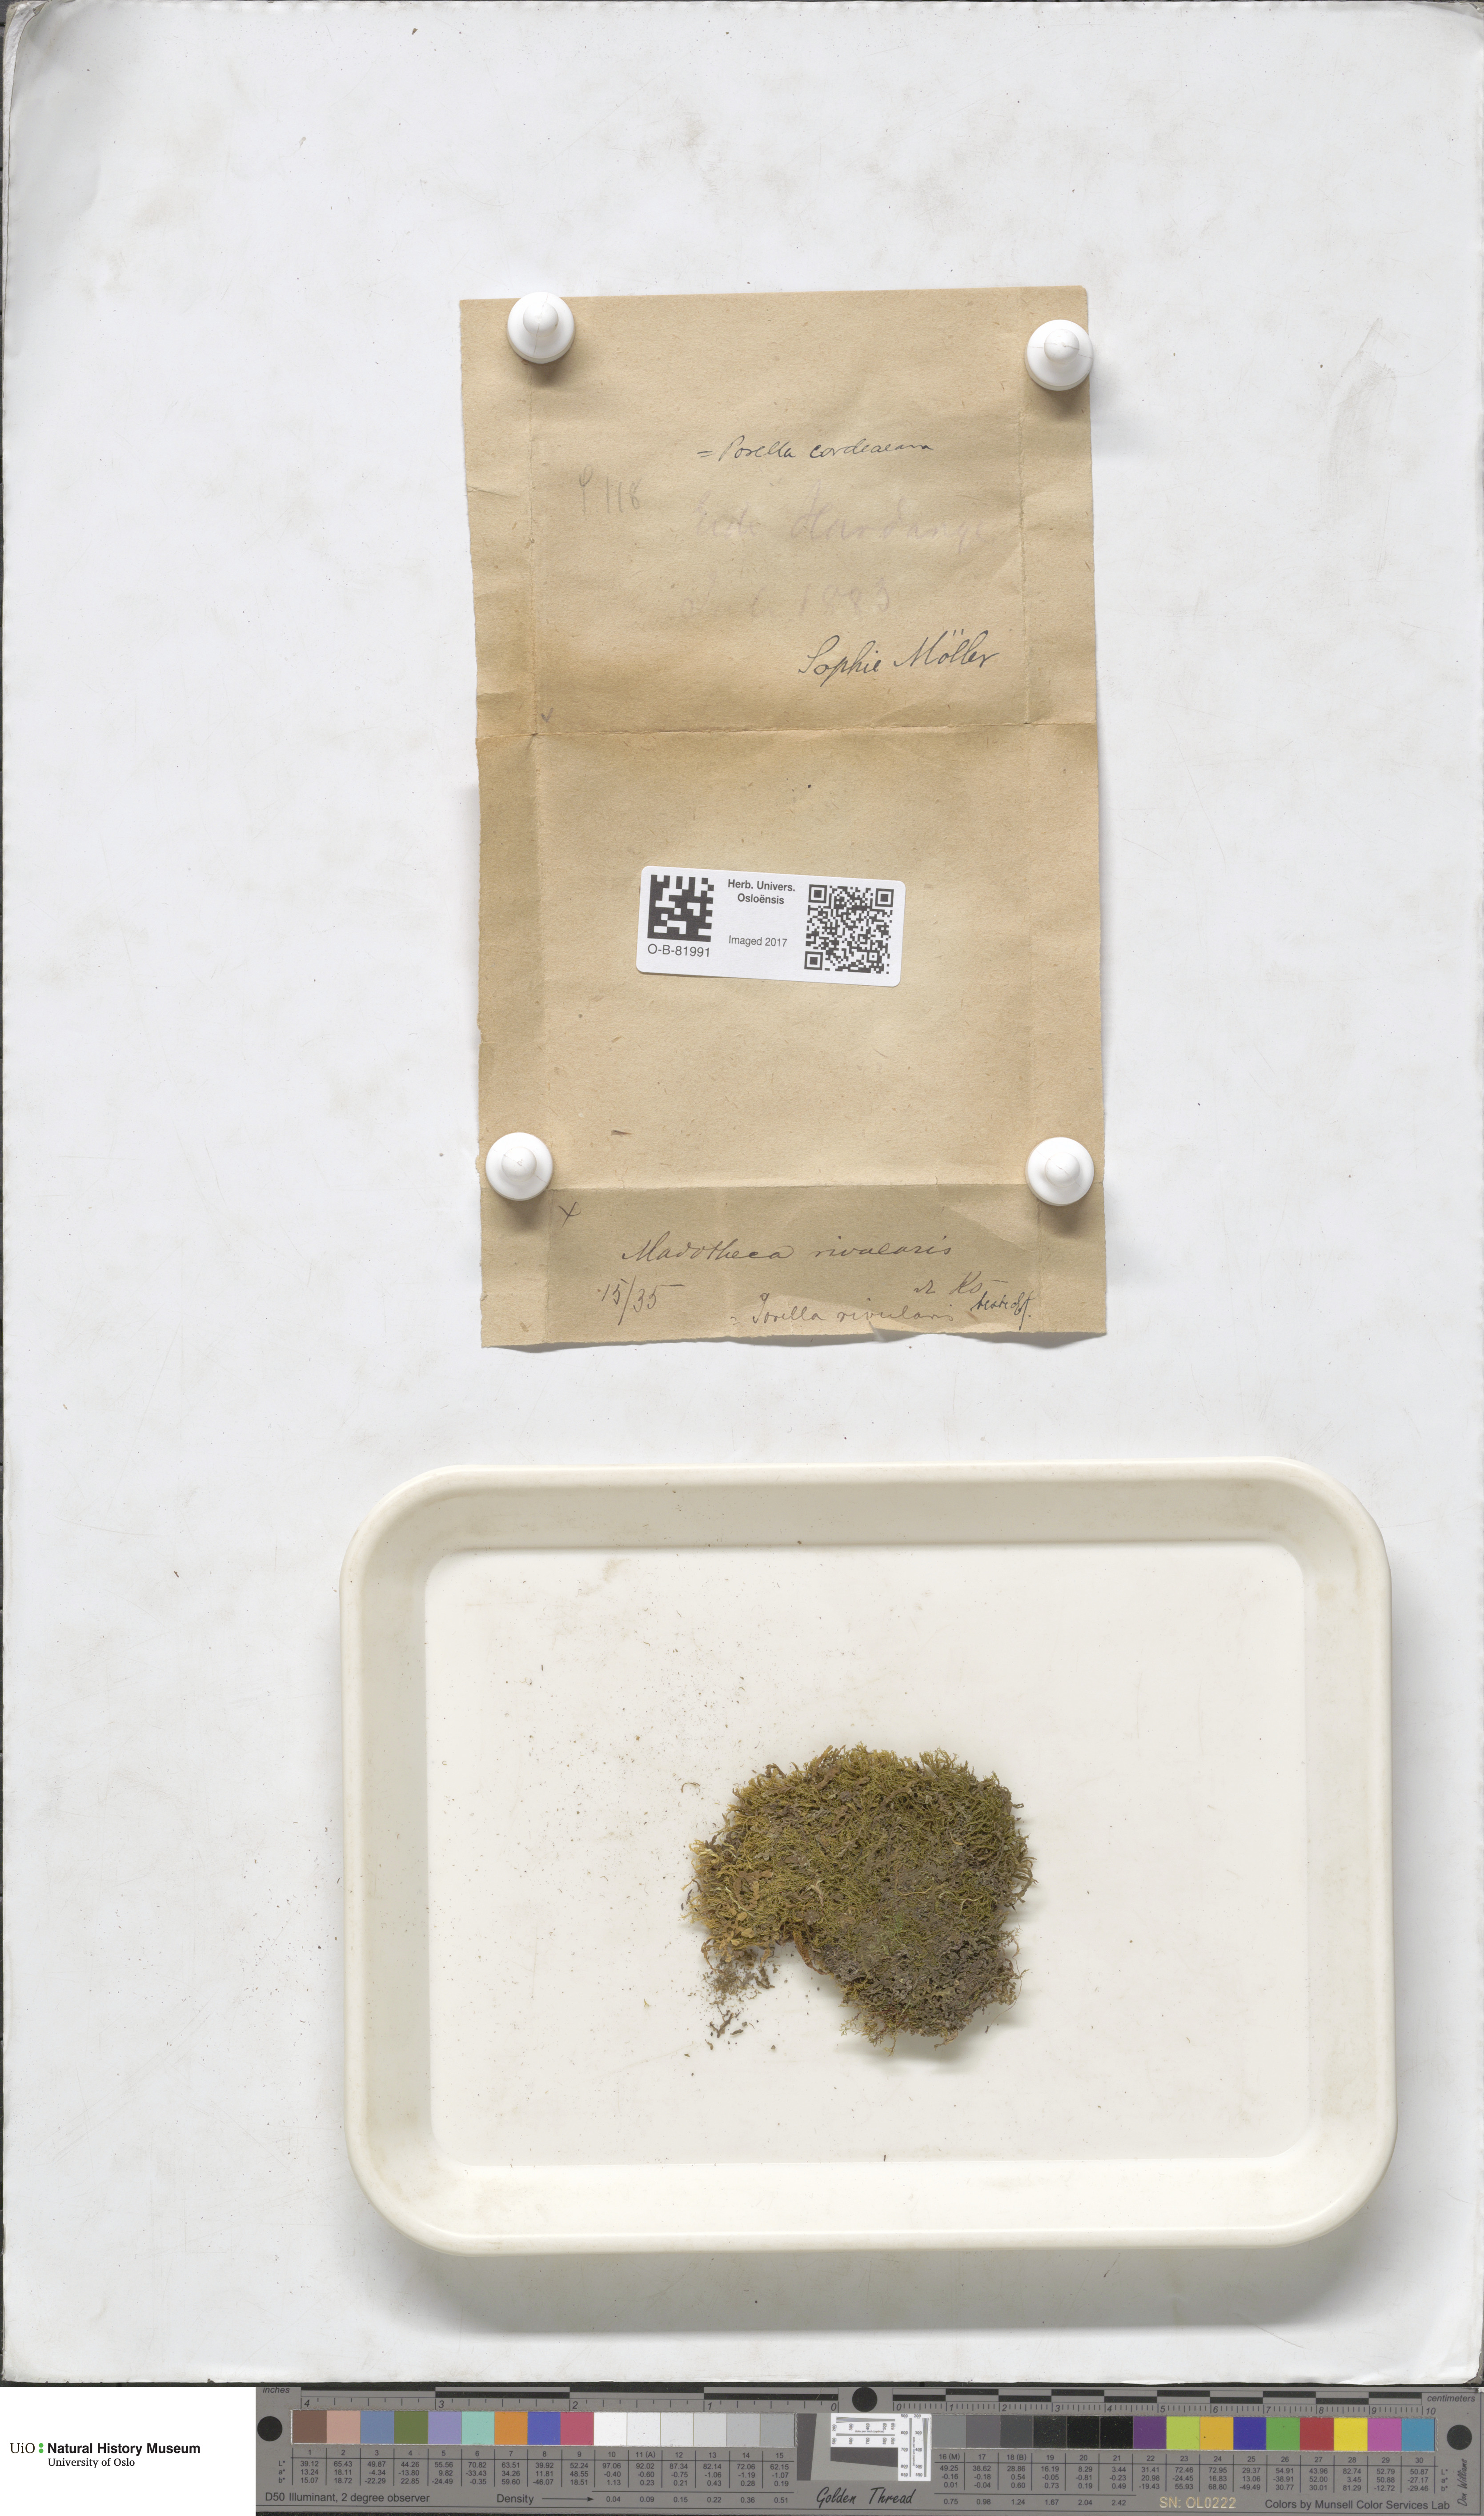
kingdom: Plantae
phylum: Marchantiophyta
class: Jungermanniopsida
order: Porellales
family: Porellaceae
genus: Porella
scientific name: Porella cordaeana
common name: Cliff scalewort
